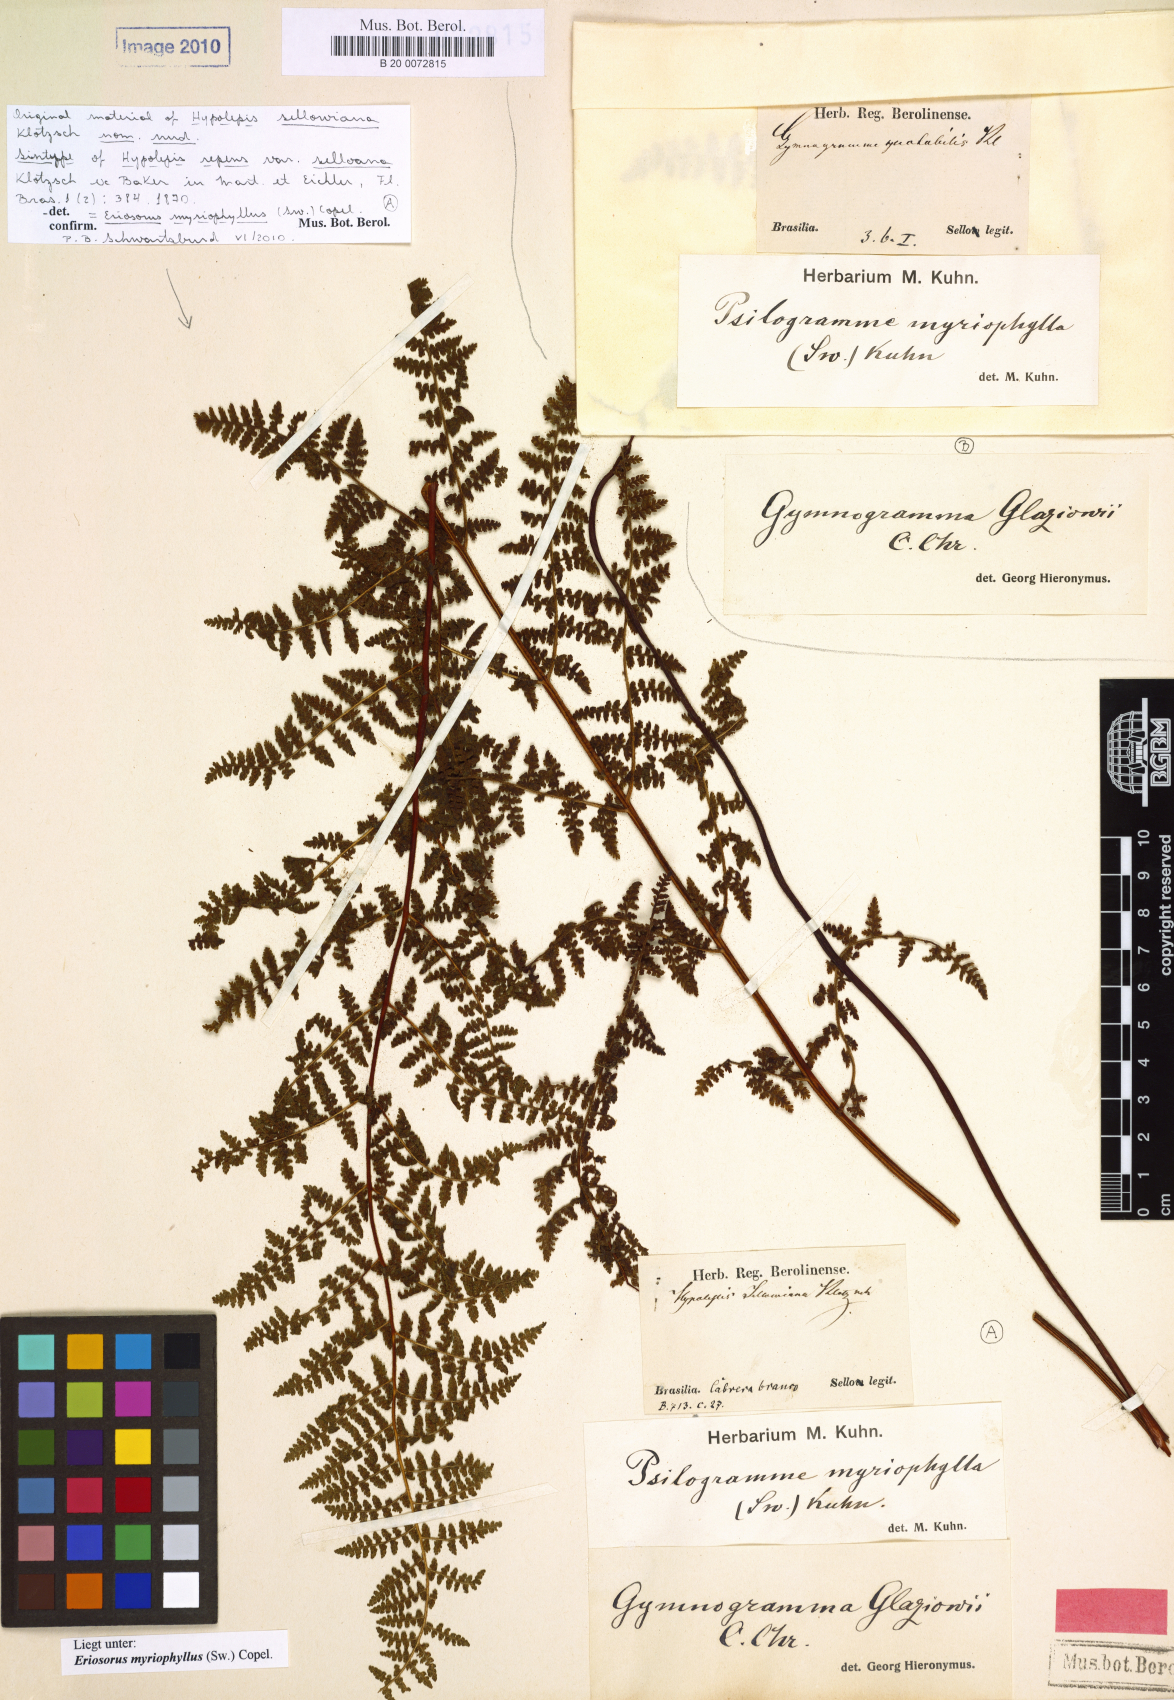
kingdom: Plantae
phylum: Tracheophyta
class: Polypodiopsida
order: Polypodiales
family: Pteridaceae
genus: Tryonia
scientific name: Tryonia myriophylla
